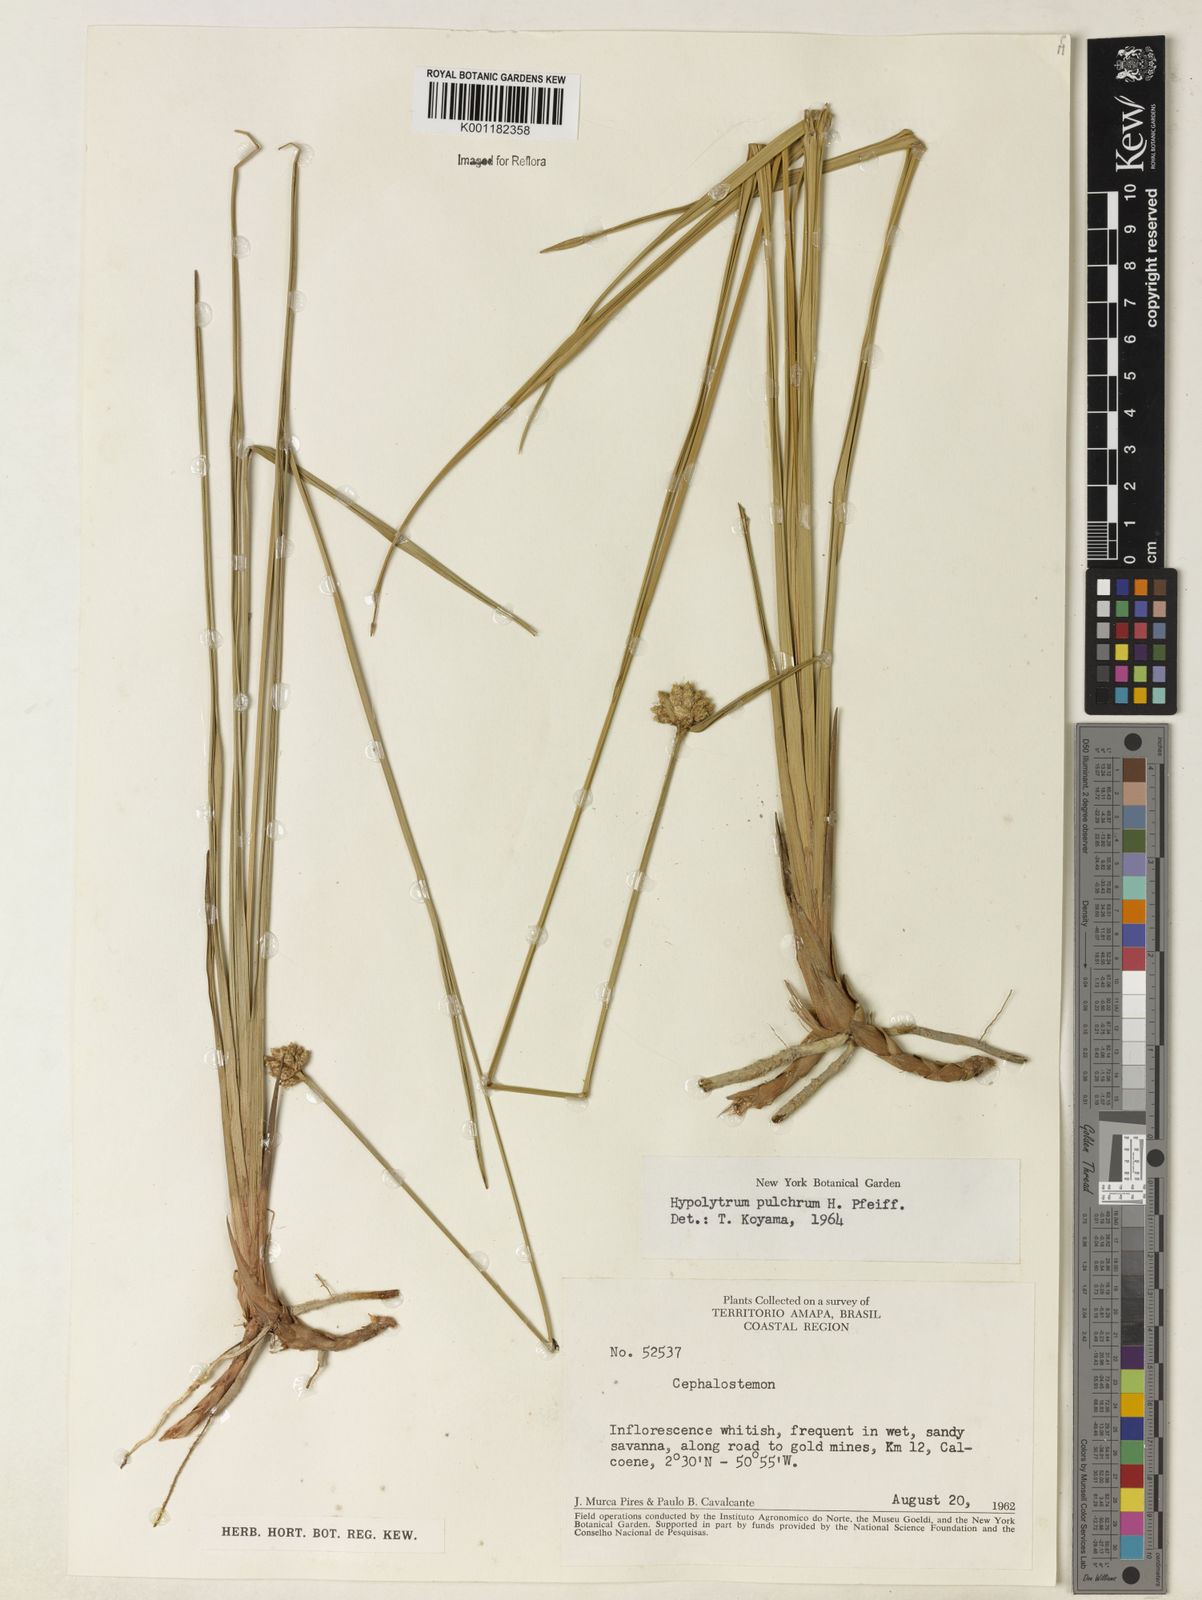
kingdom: Plantae
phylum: Tracheophyta
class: Liliopsida
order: Poales
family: Cyperaceae
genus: Hypolytrum
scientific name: Hypolytrum pulchrum
